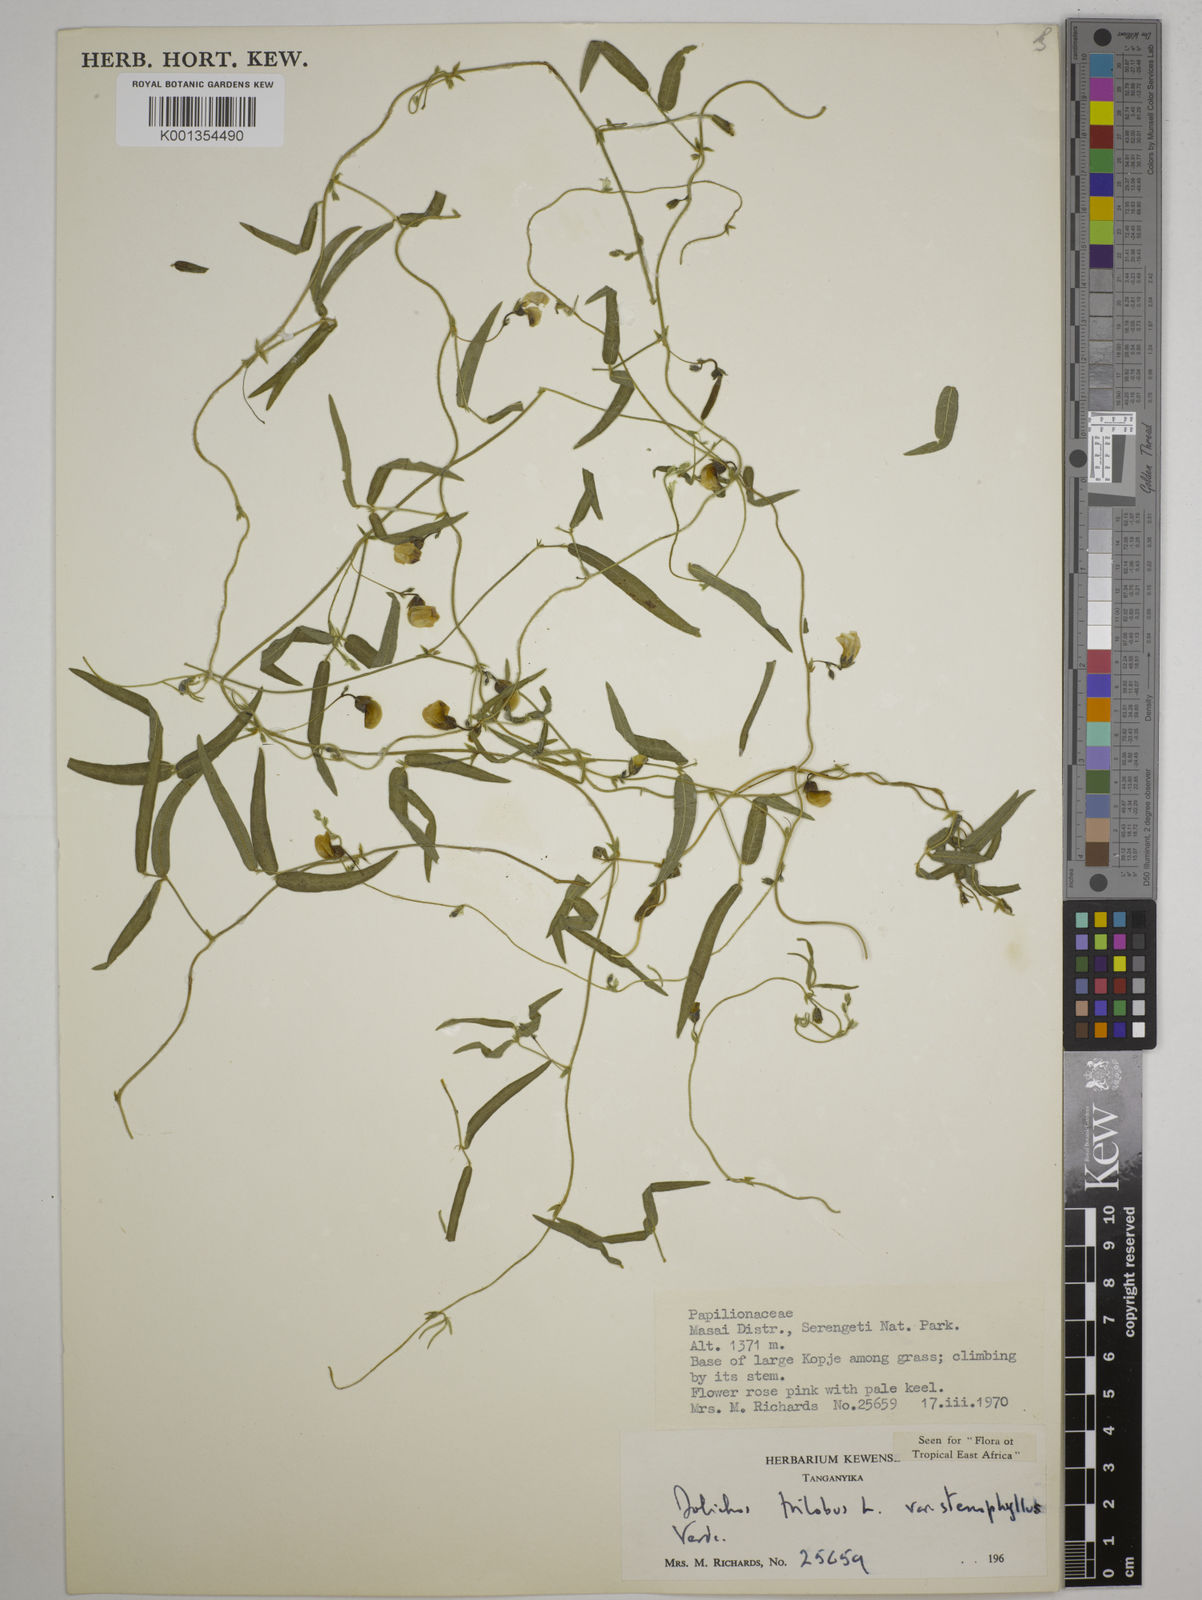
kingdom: Plantae
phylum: Tracheophyta
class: Magnoliopsida
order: Fabales
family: Fabaceae
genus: Dolichos
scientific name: Dolichos
